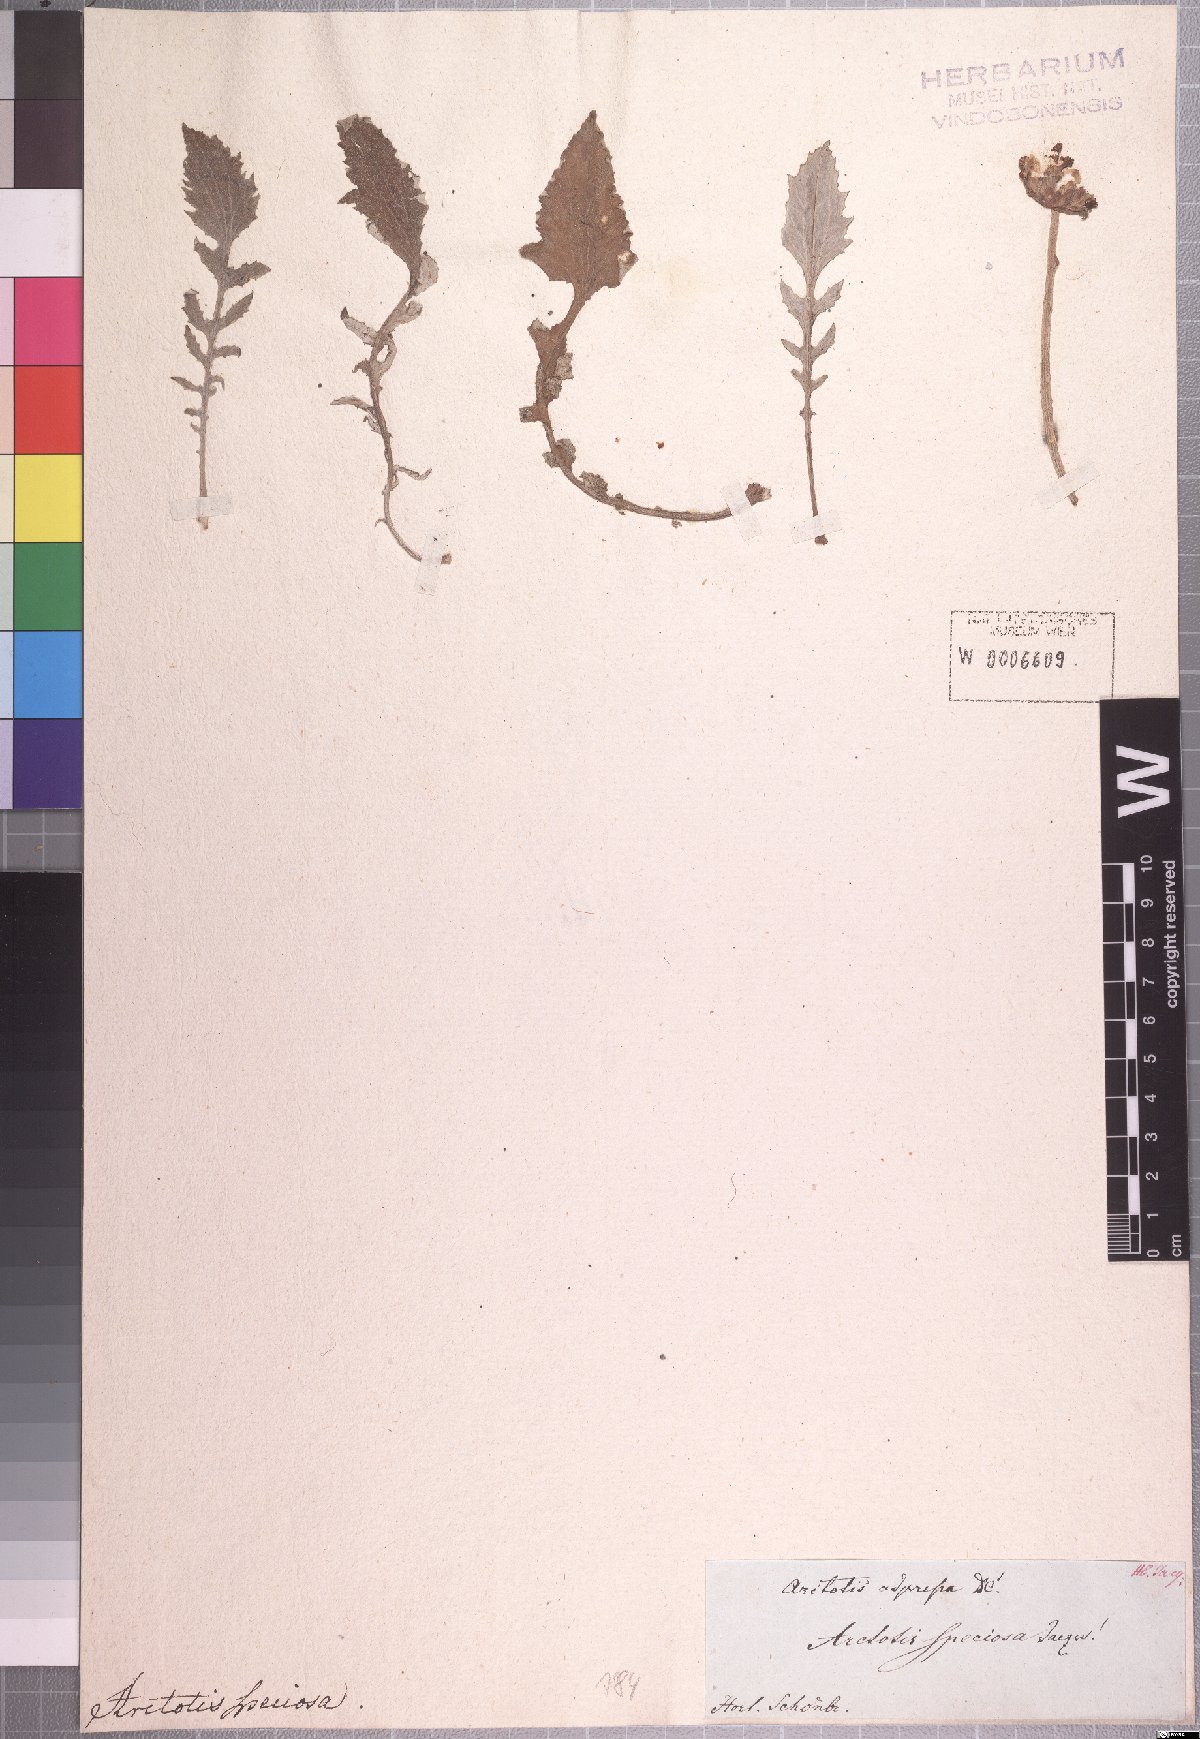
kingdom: Plantae
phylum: Tracheophyta
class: Magnoliopsida
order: Asterales
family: Asteraceae
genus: Arctotis
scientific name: Arctotis acaulis
